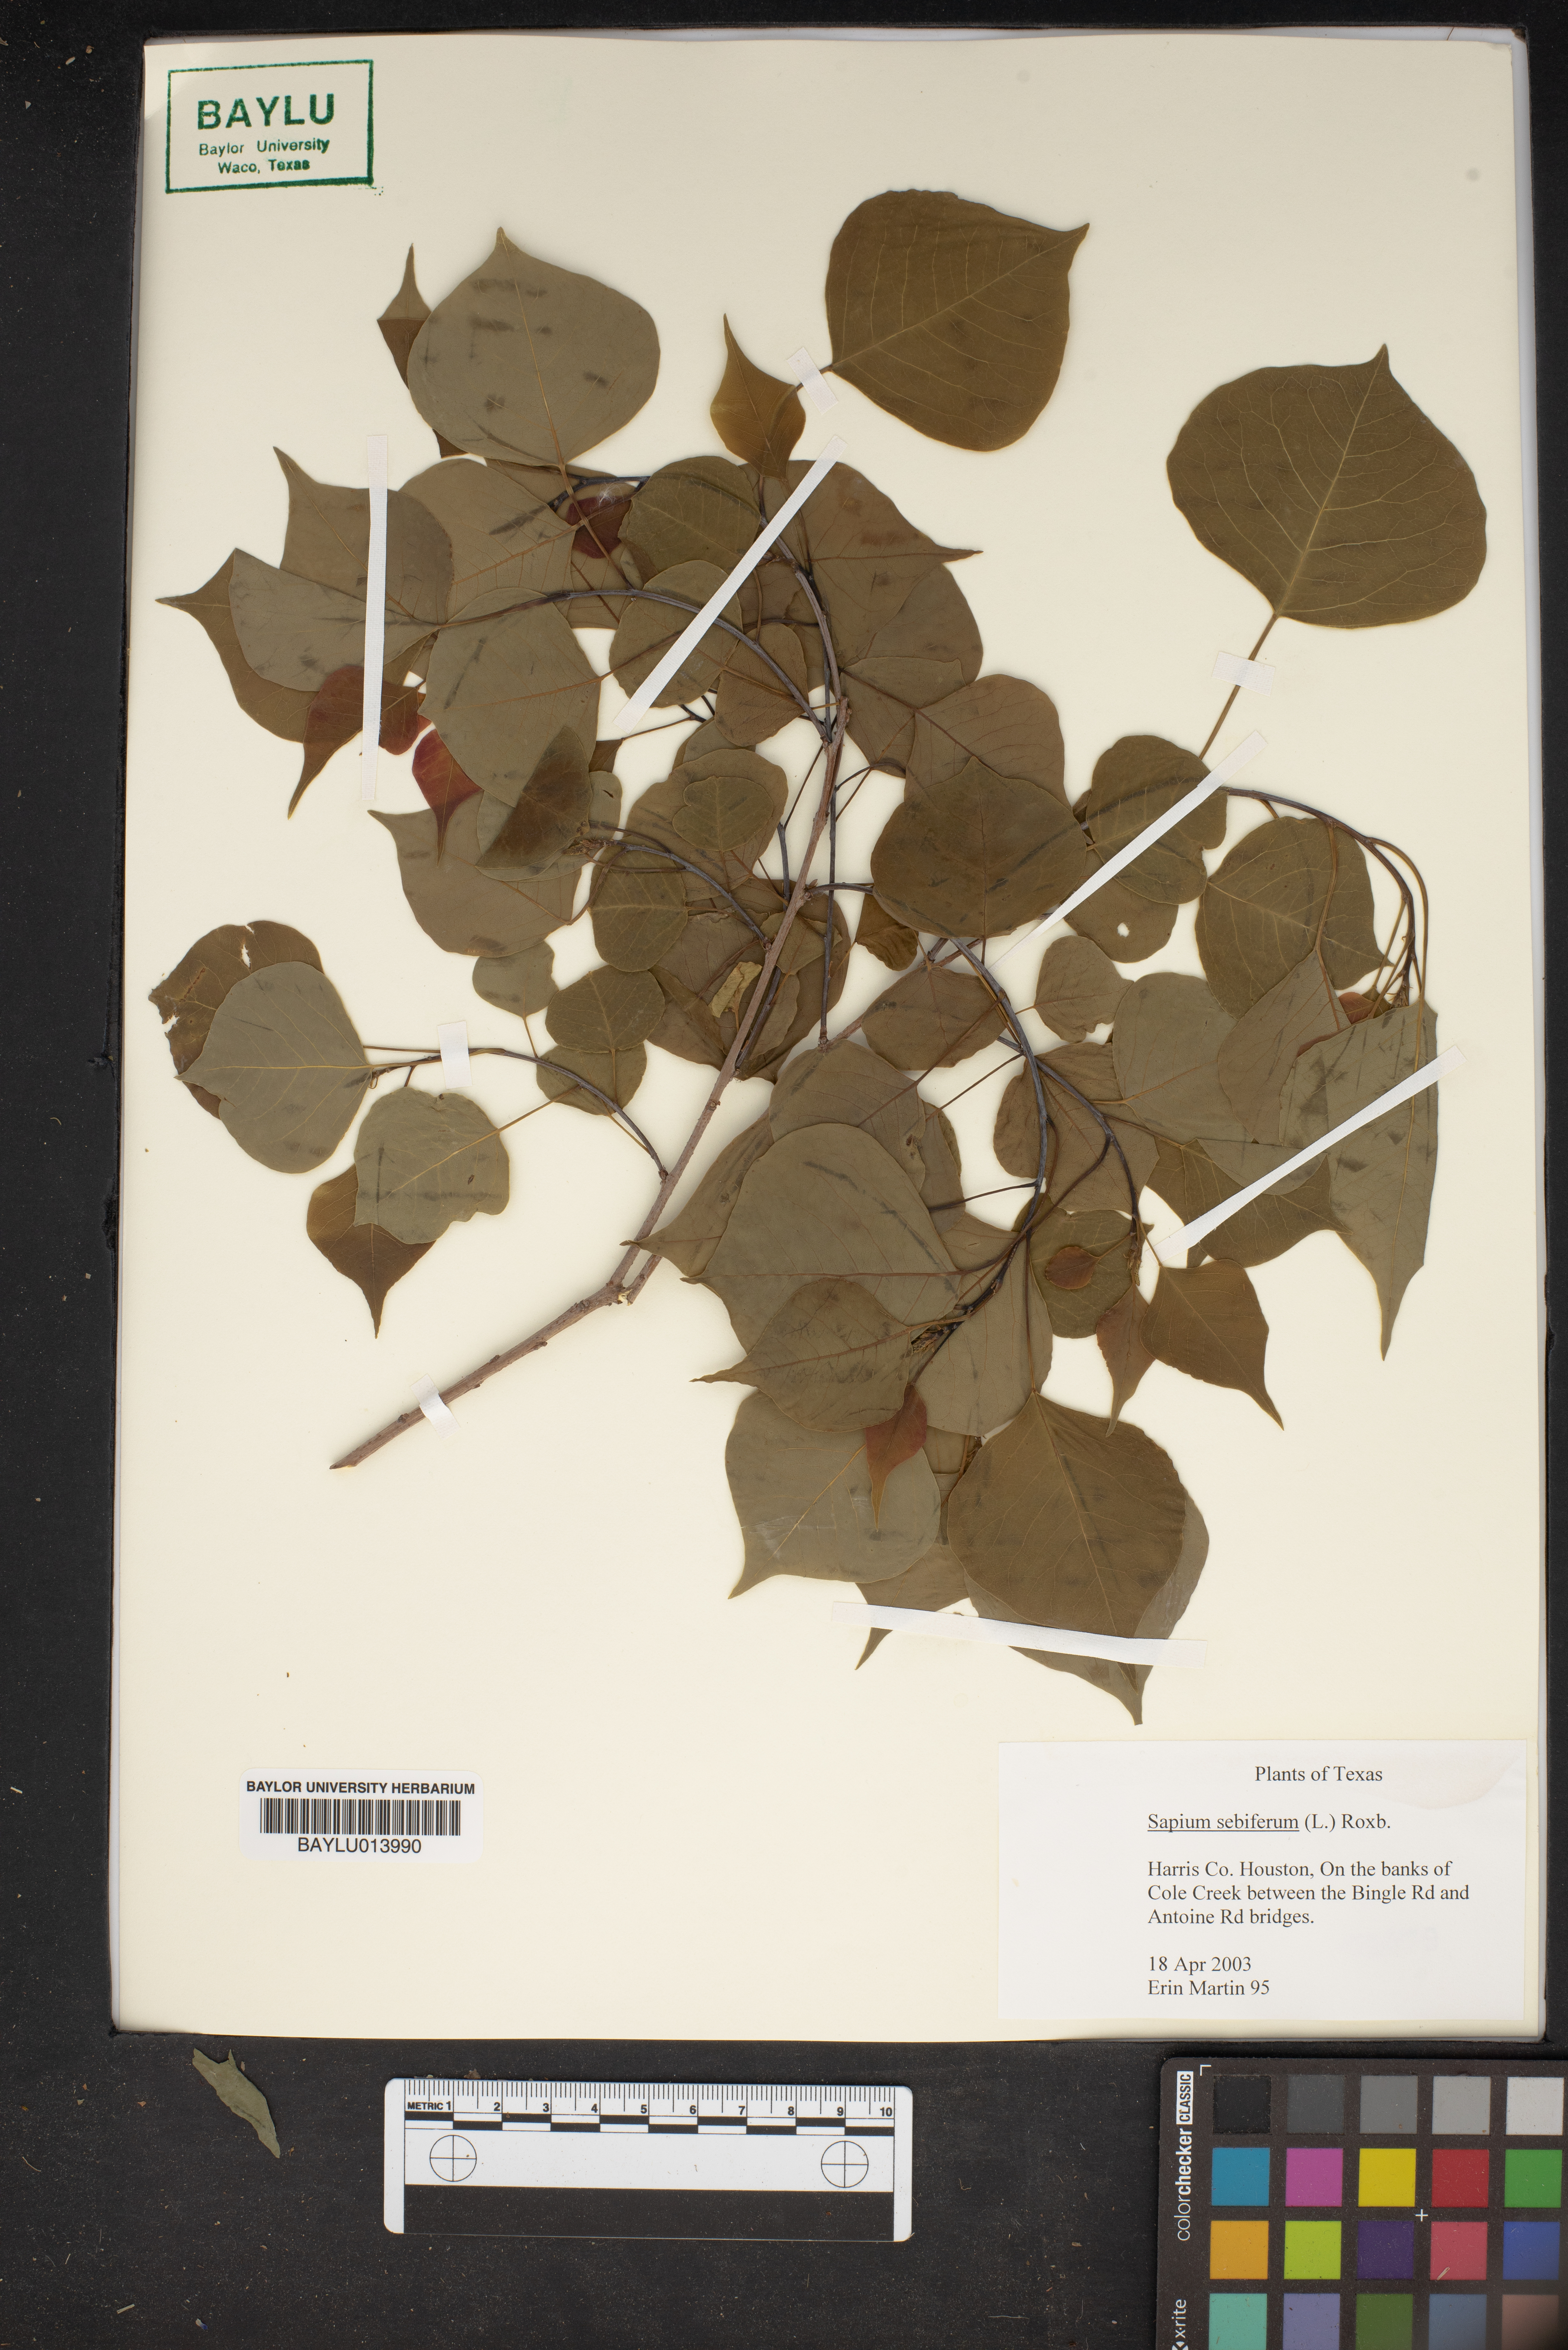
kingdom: Plantae
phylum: Tracheophyta
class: Magnoliopsida
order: Malpighiales
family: Euphorbiaceae
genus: Triadica
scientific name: Triadica sebifera
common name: Chinese tallow
